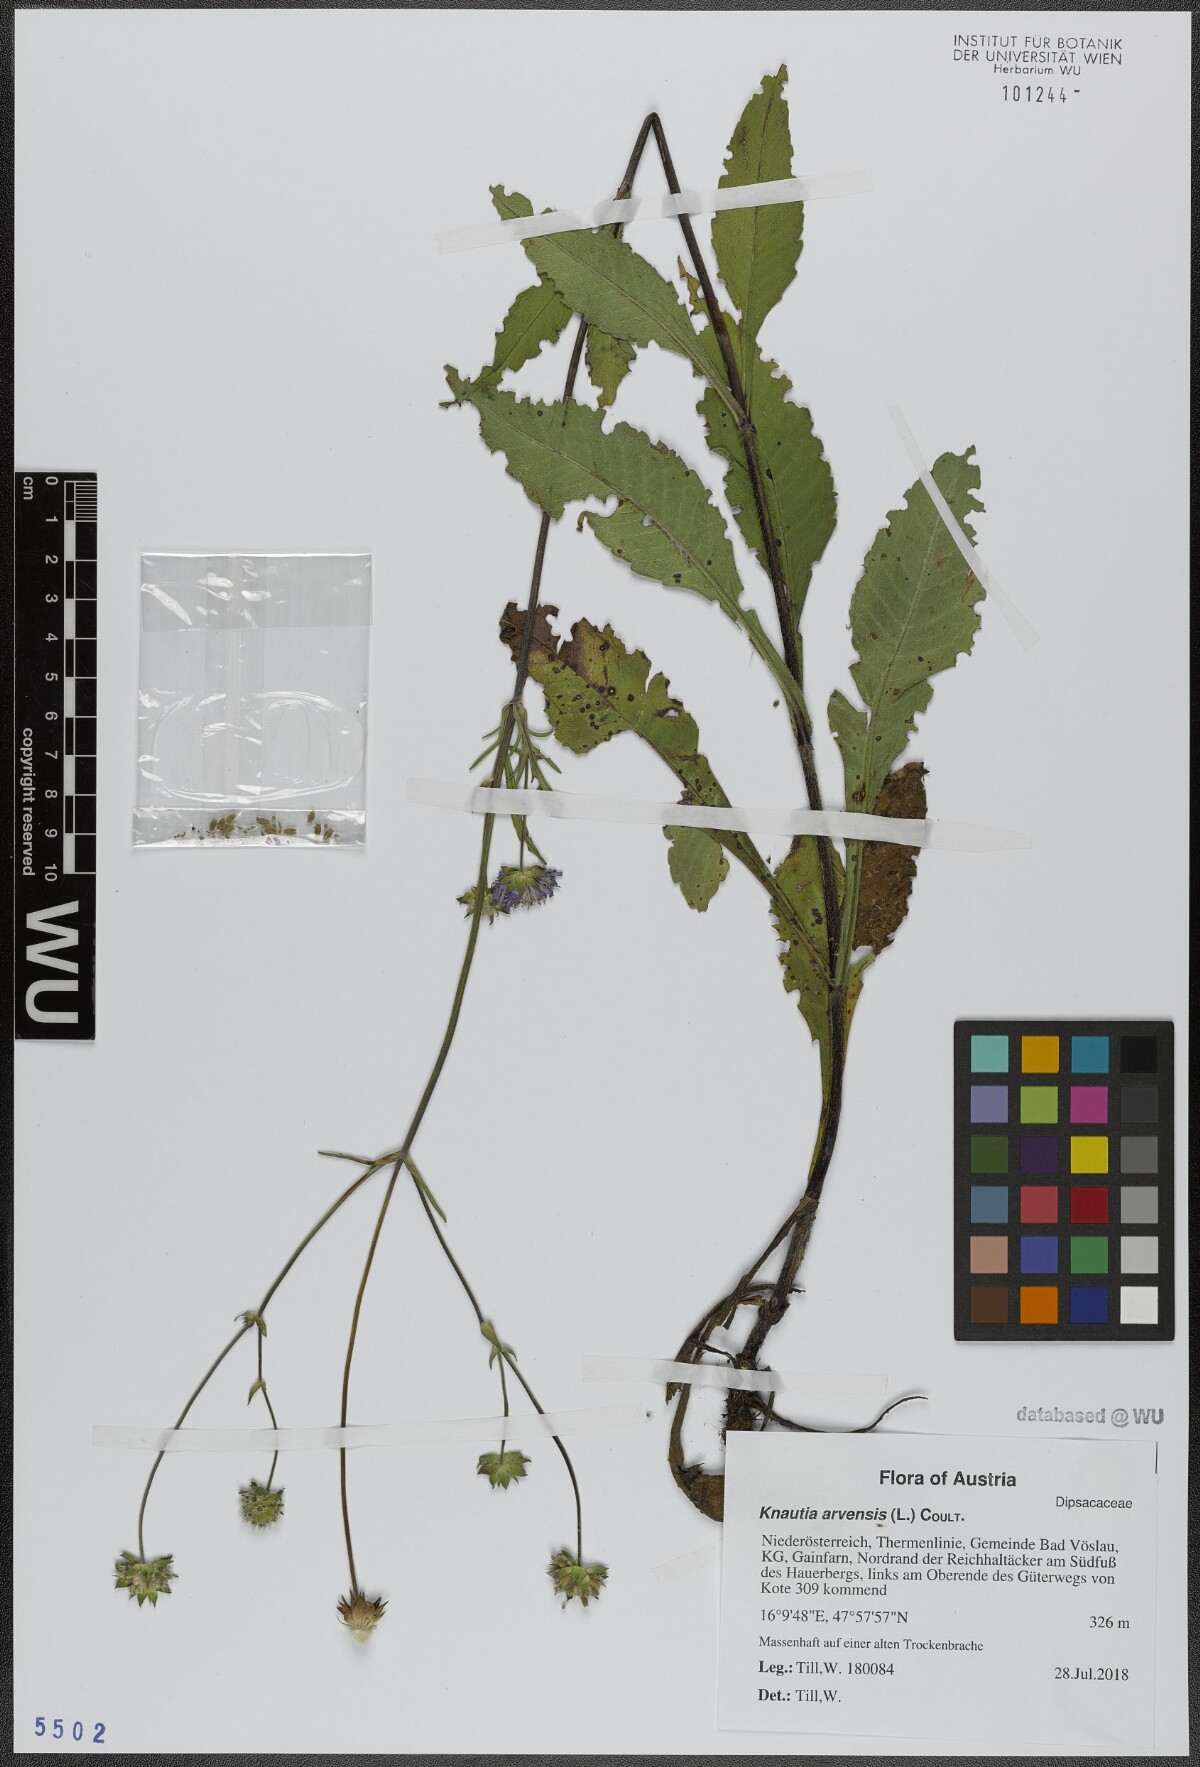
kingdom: Plantae
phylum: Tracheophyta
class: Magnoliopsida
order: Dipsacales
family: Caprifoliaceae
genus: Knautia
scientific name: Knautia arvensis
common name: Field scabiosa
